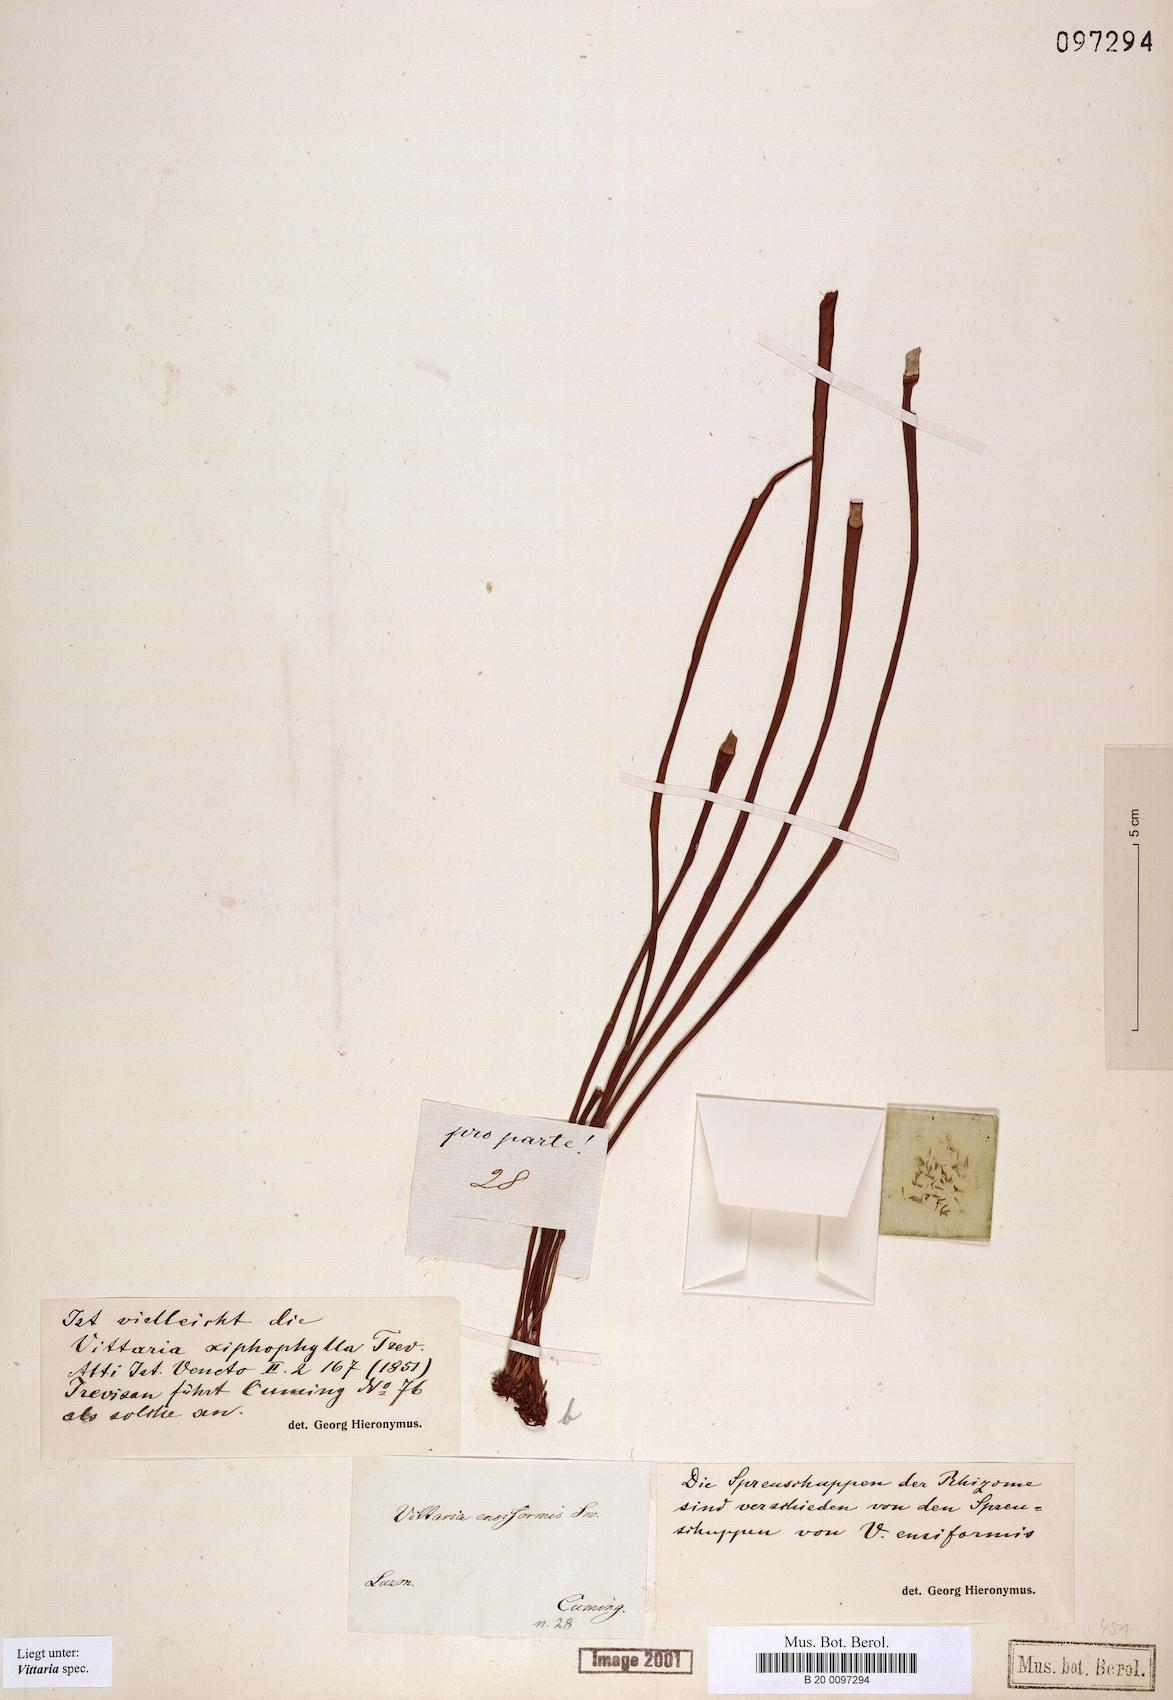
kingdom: Plantae
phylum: Tracheophyta
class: Polypodiopsida
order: Polypodiales
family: Pteridaceae
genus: Haplopteris
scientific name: Haplopteris ensiformis
